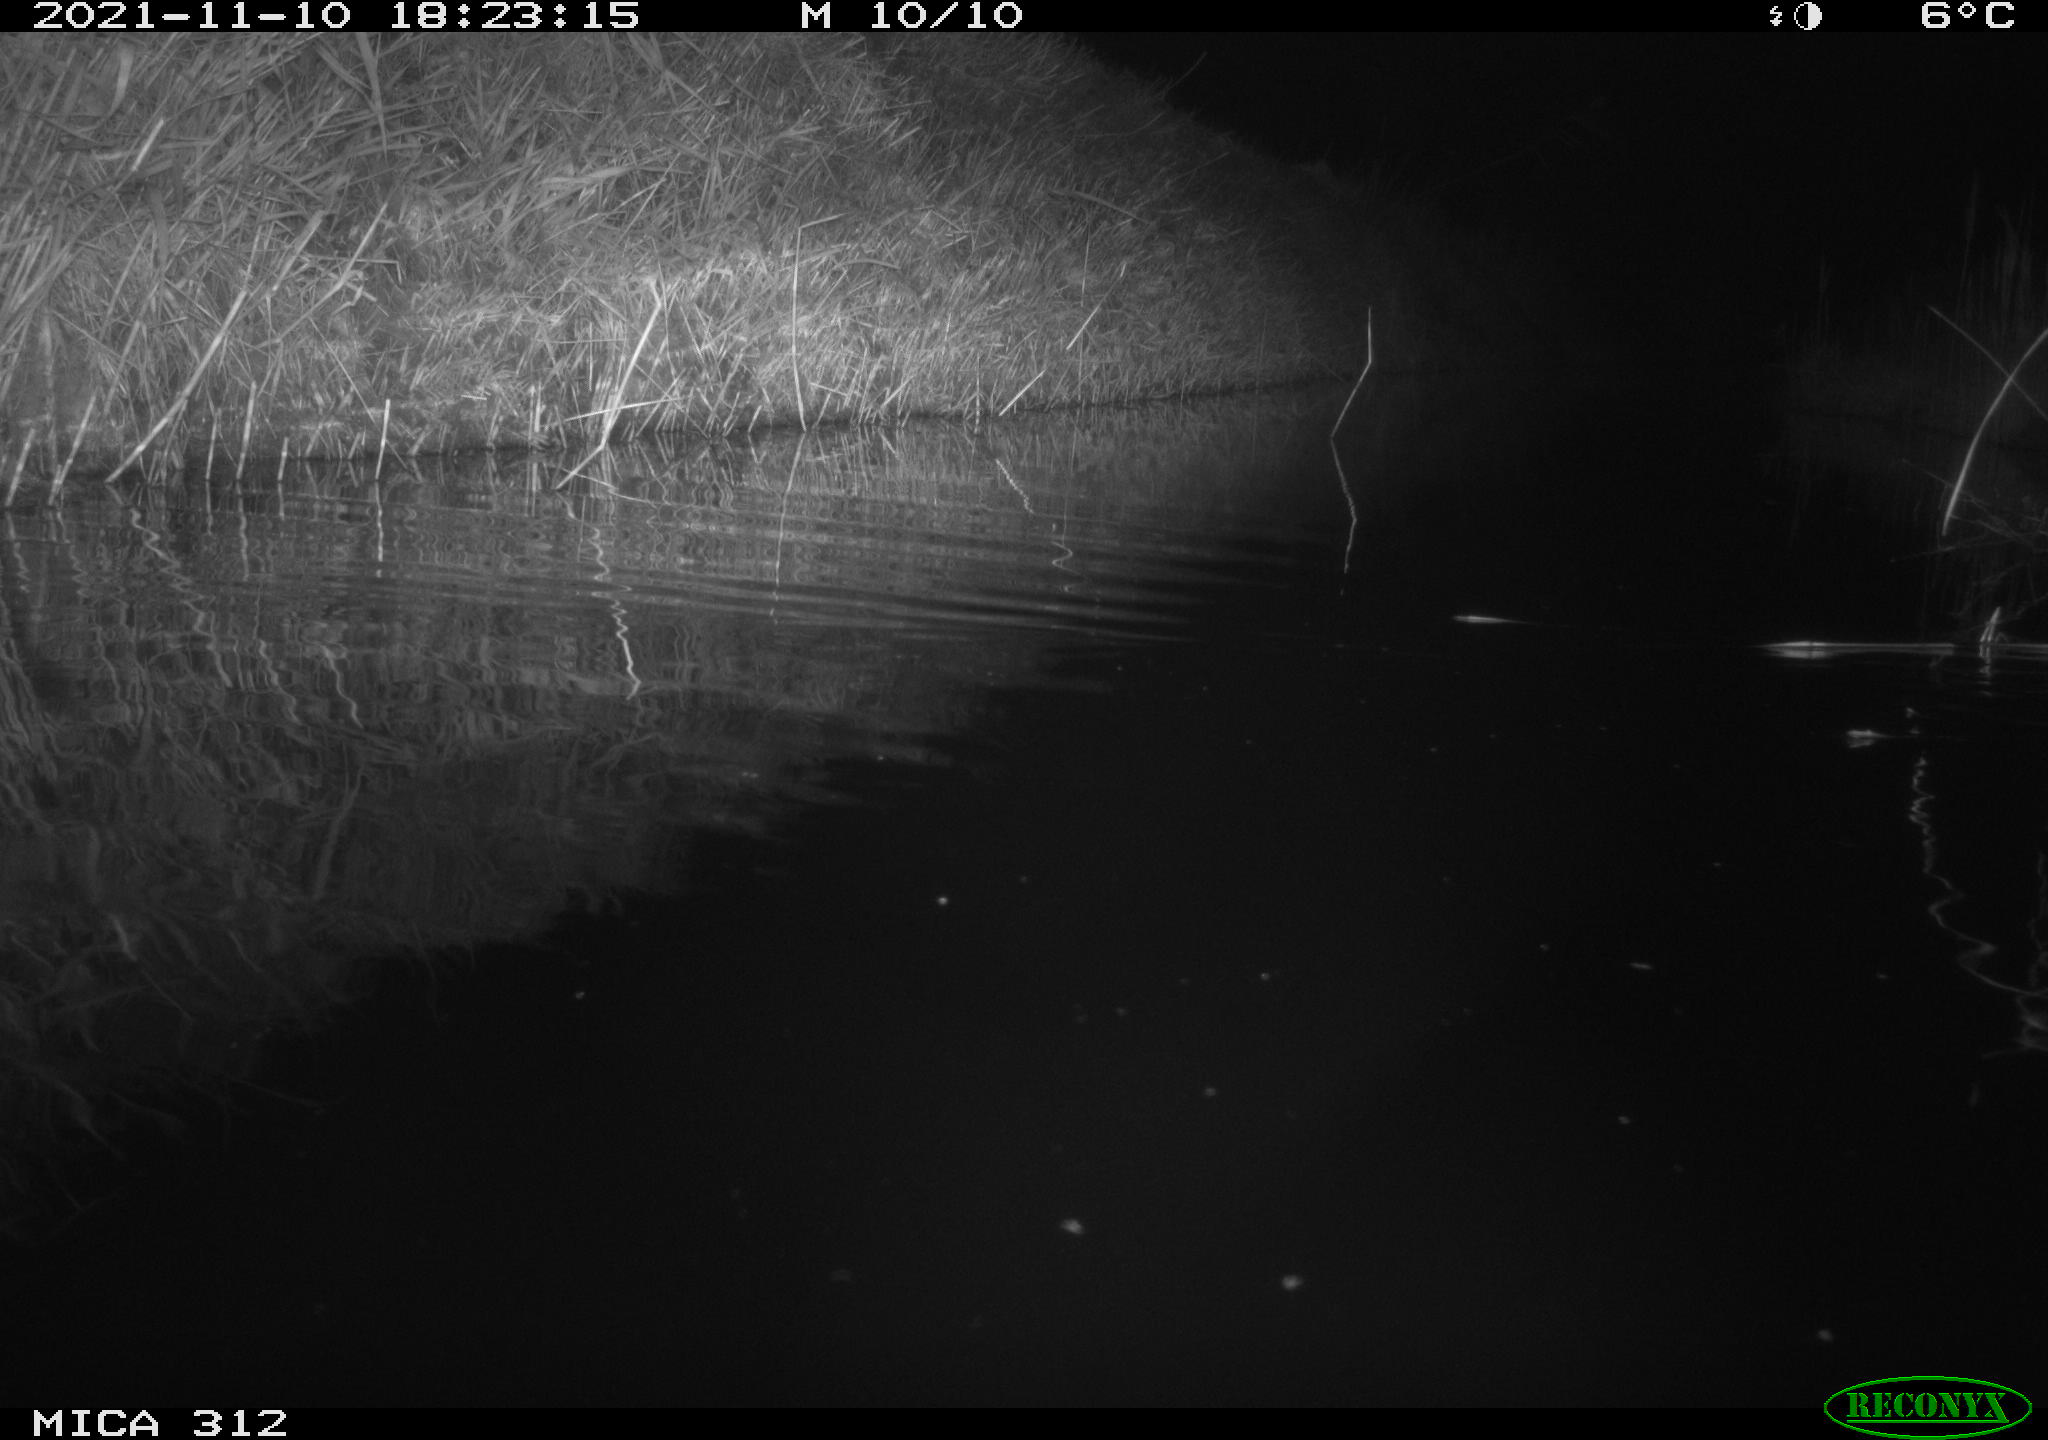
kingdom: Animalia
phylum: Chordata
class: Mammalia
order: Rodentia
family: Muridae
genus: Rattus
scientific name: Rattus norvegicus
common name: Brown rat
